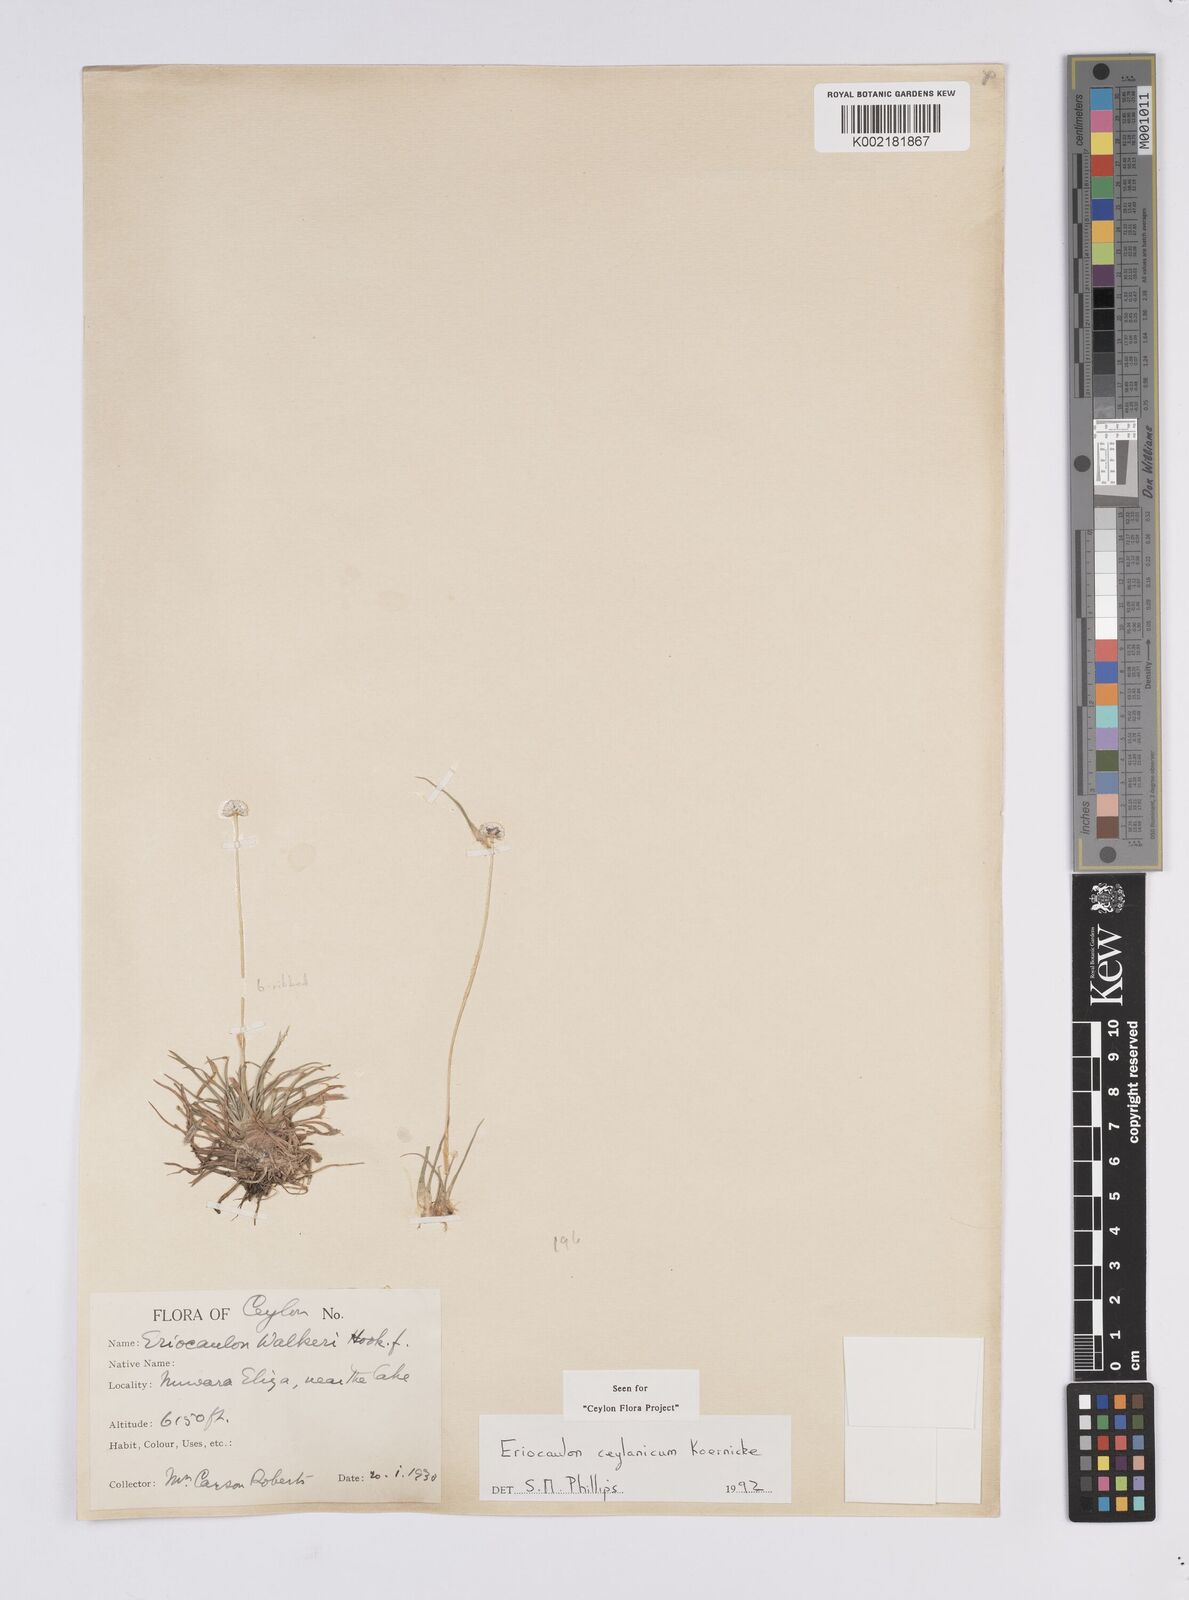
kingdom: Plantae
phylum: Tracheophyta
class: Liliopsida
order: Poales
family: Eriocaulaceae
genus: Eriocaulon
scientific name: Eriocaulon ceylanicum
